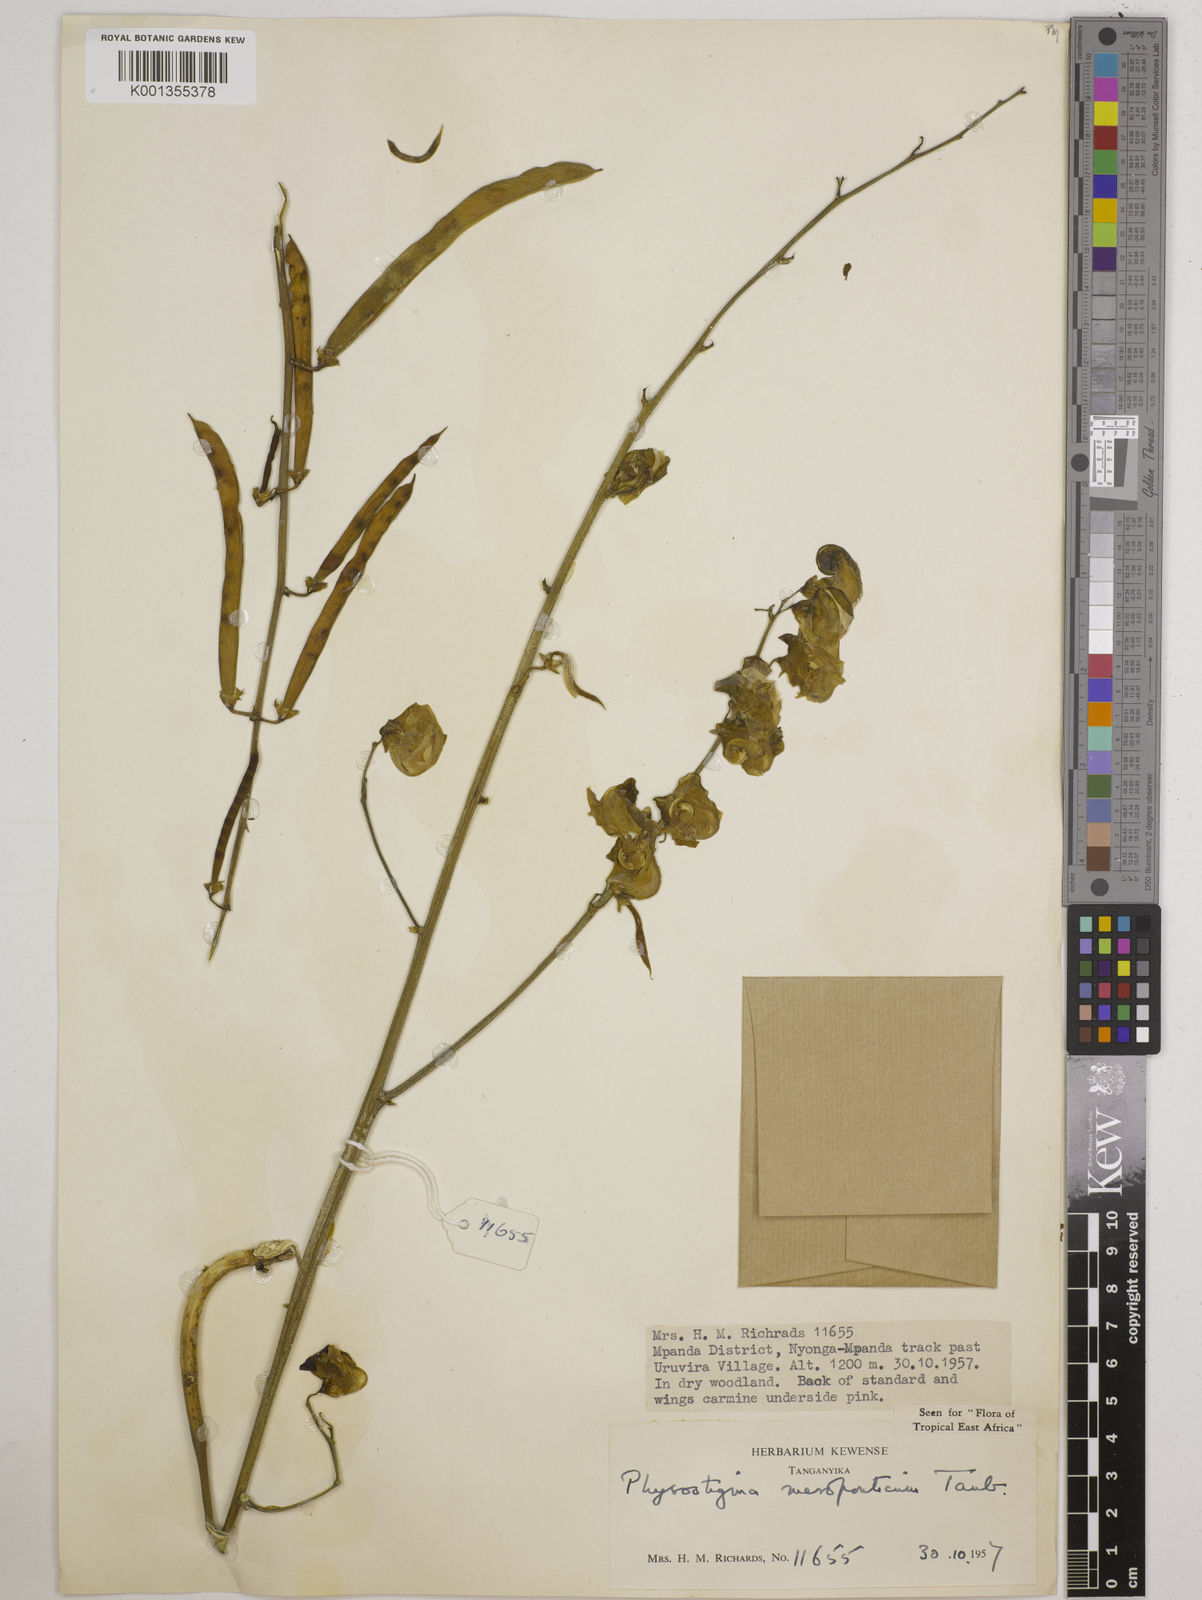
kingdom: Plantae
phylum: Tracheophyta
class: Magnoliopsida
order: Fabales
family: Fabaceae
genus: Physostigma
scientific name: Physostigma mesoponticum
